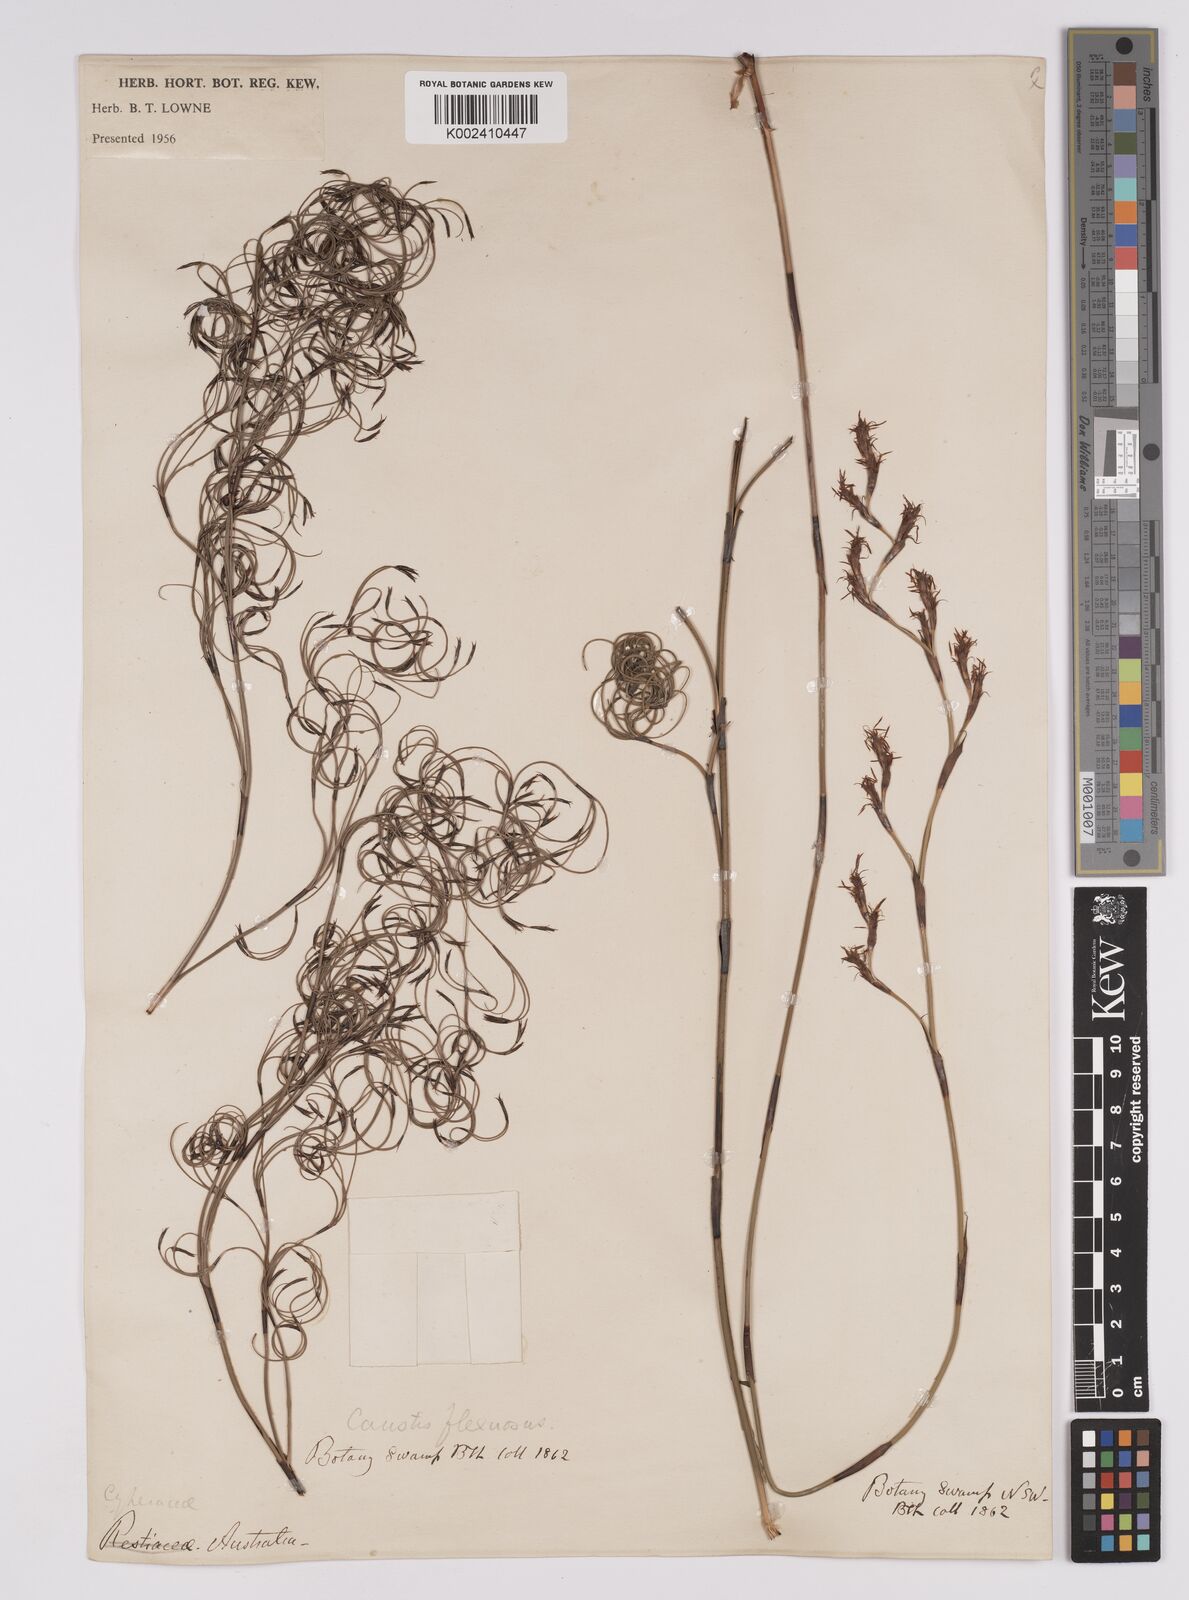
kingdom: Plantae
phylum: Tracheophyta
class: Liliopsida
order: Poales
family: Cyperaceae
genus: Caustis
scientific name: Caustis flexuosa
